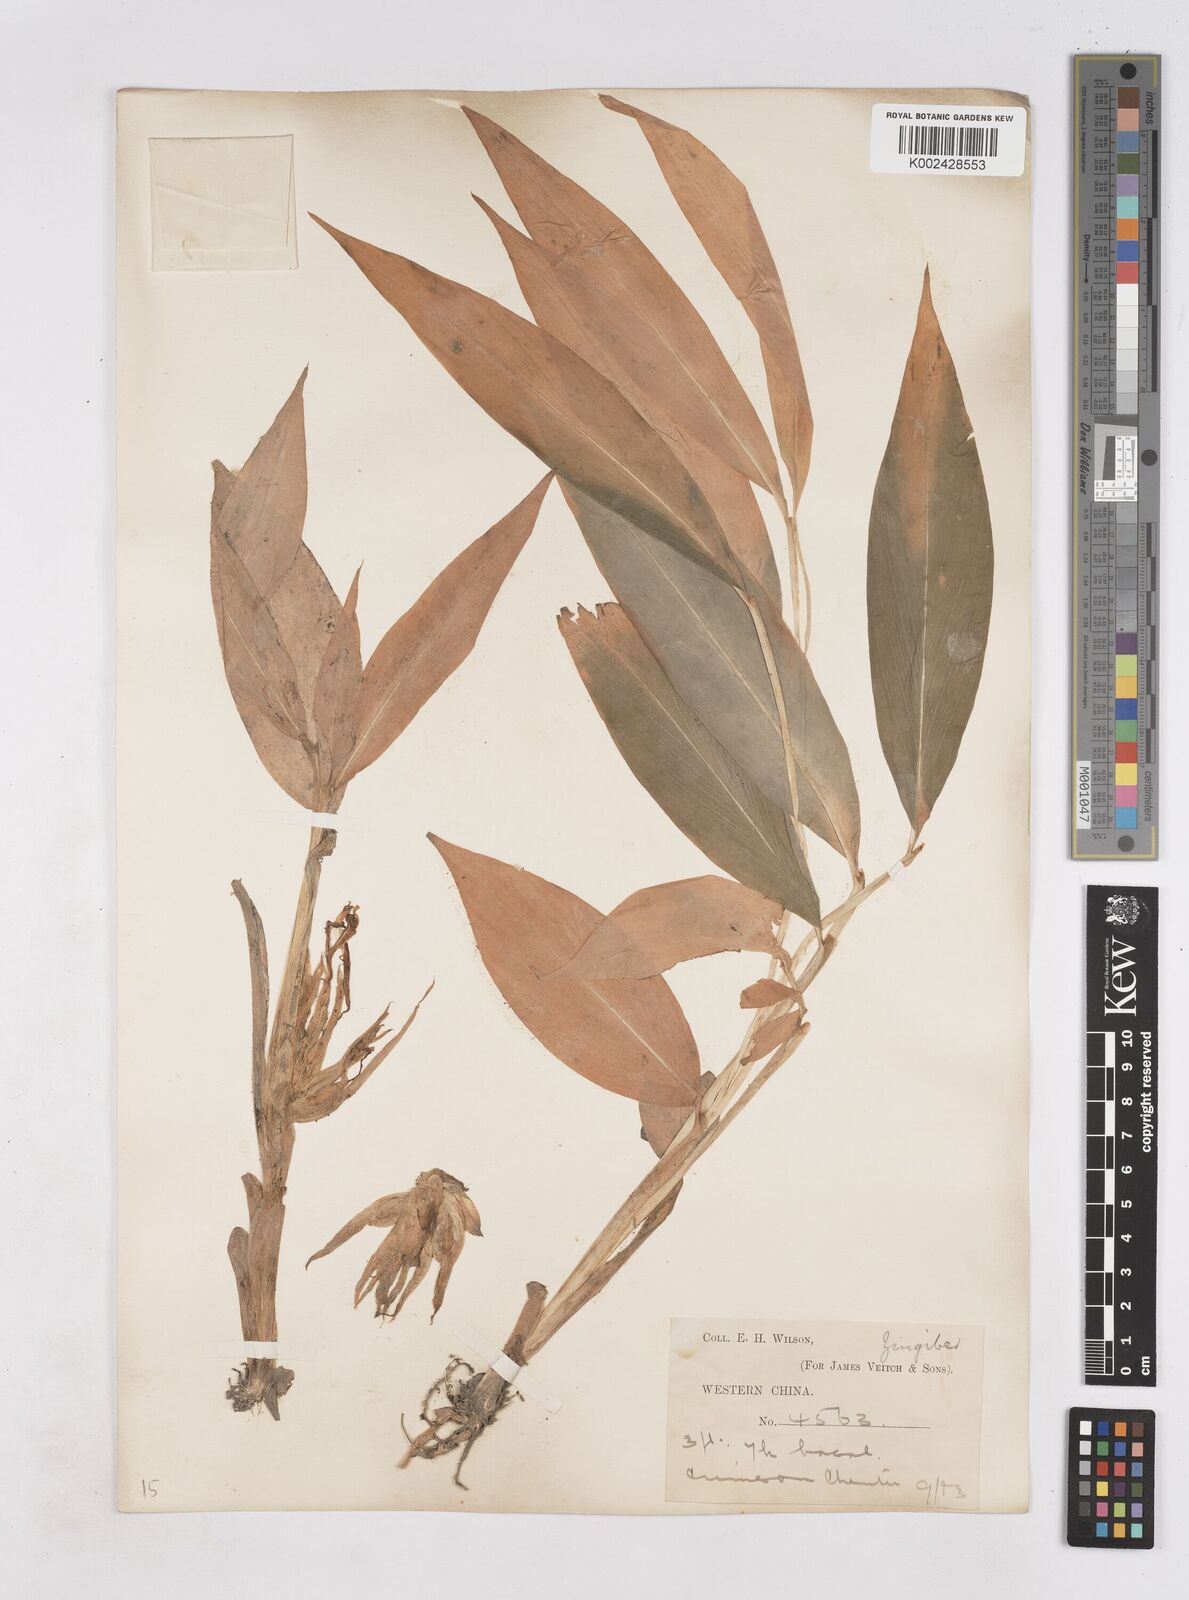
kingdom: Plantae
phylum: Tracheophyta
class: Liliopsida
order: Zingiberales
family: Zingiberaceae
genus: Zingiber
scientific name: Zingiber
